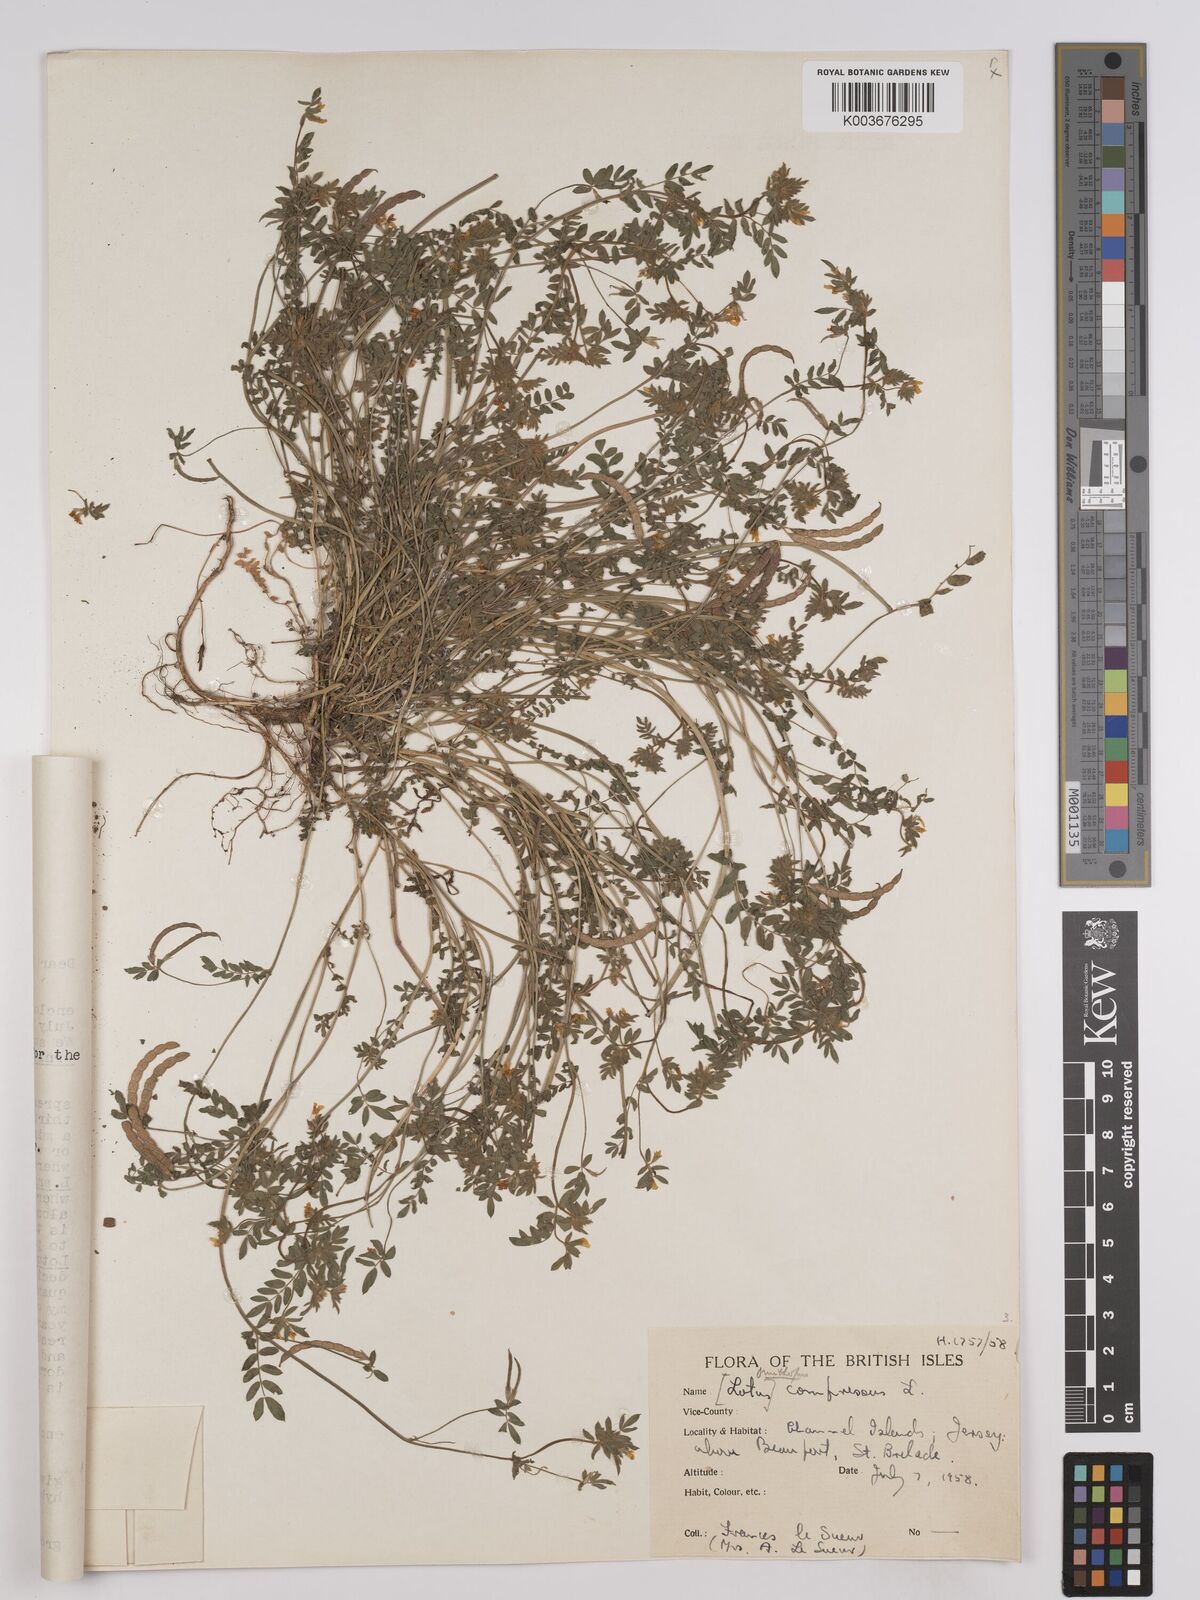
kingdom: Plantae
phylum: Tracheophyta
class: Magnoliopsida
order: Fabales
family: Fabaceae
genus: Hosackia
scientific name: Hosackia
